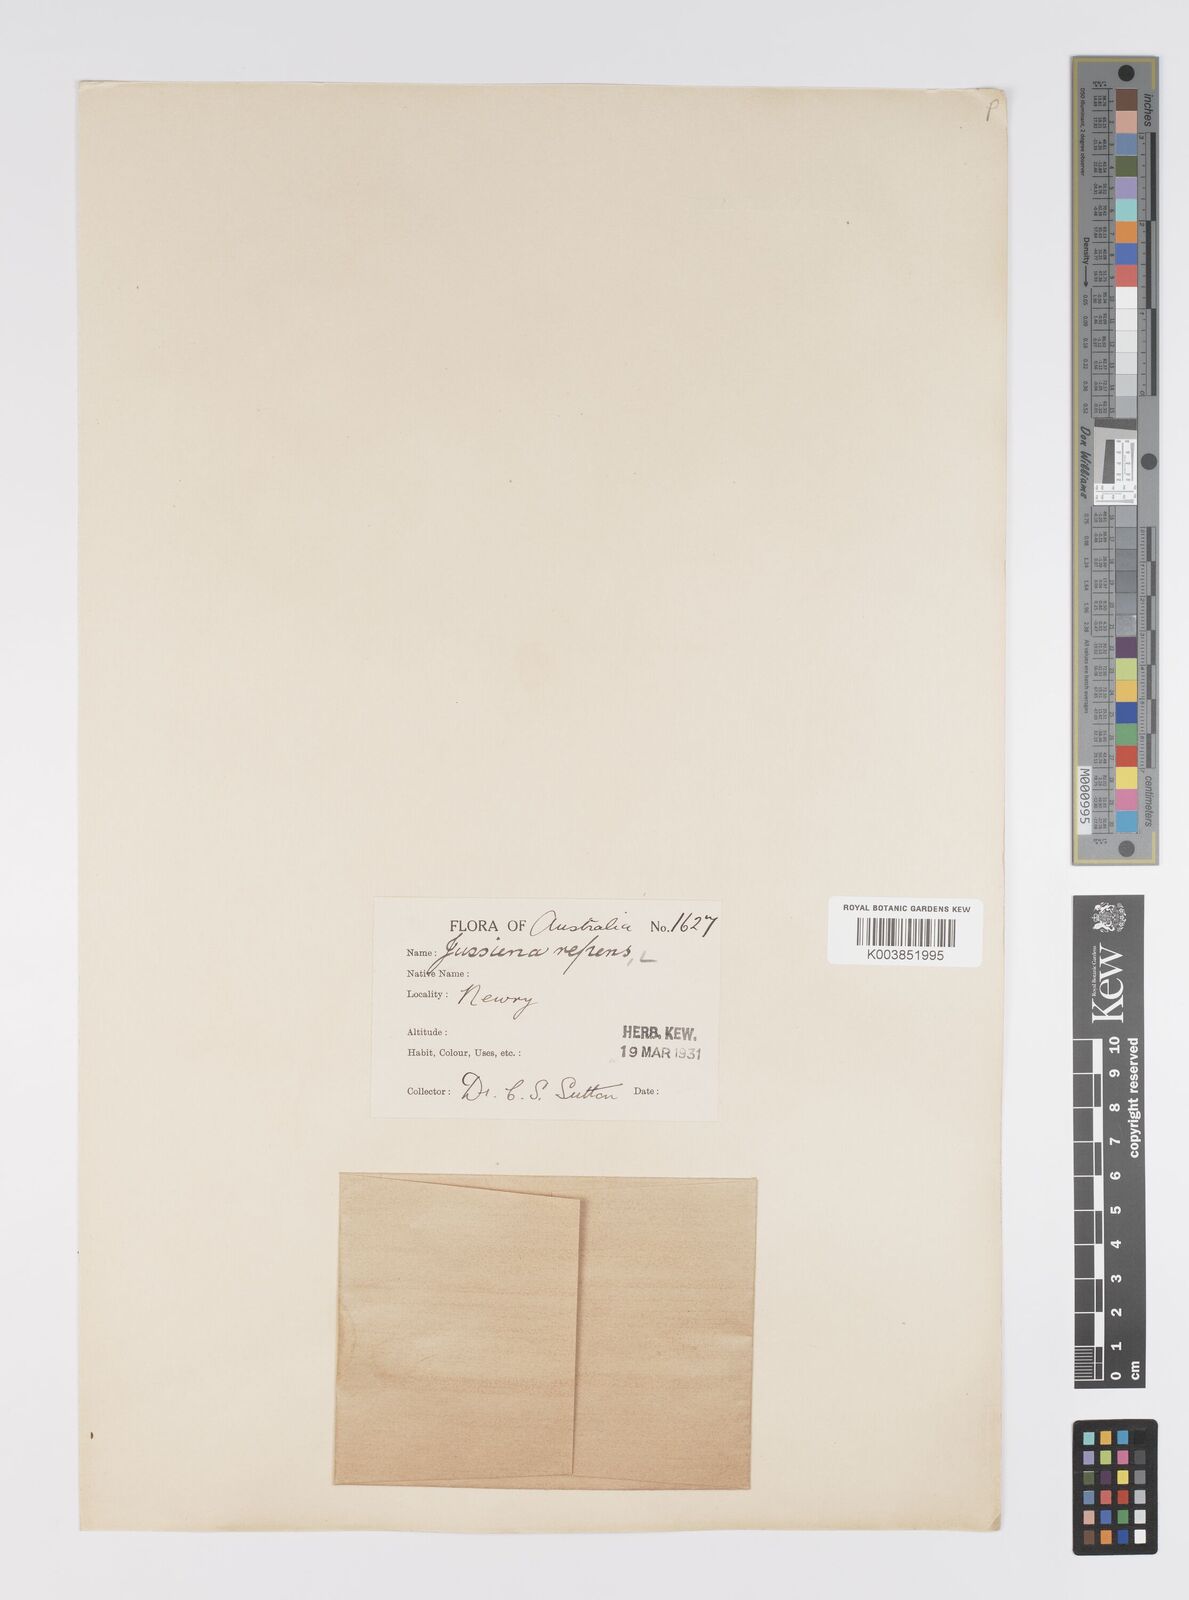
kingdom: Plantae
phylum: Tracheophyta
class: Magnoliopsida
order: Myrtales
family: Onagraceae
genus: Ludwigia
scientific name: Ludwigia peploides
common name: Floating primrose-willow
